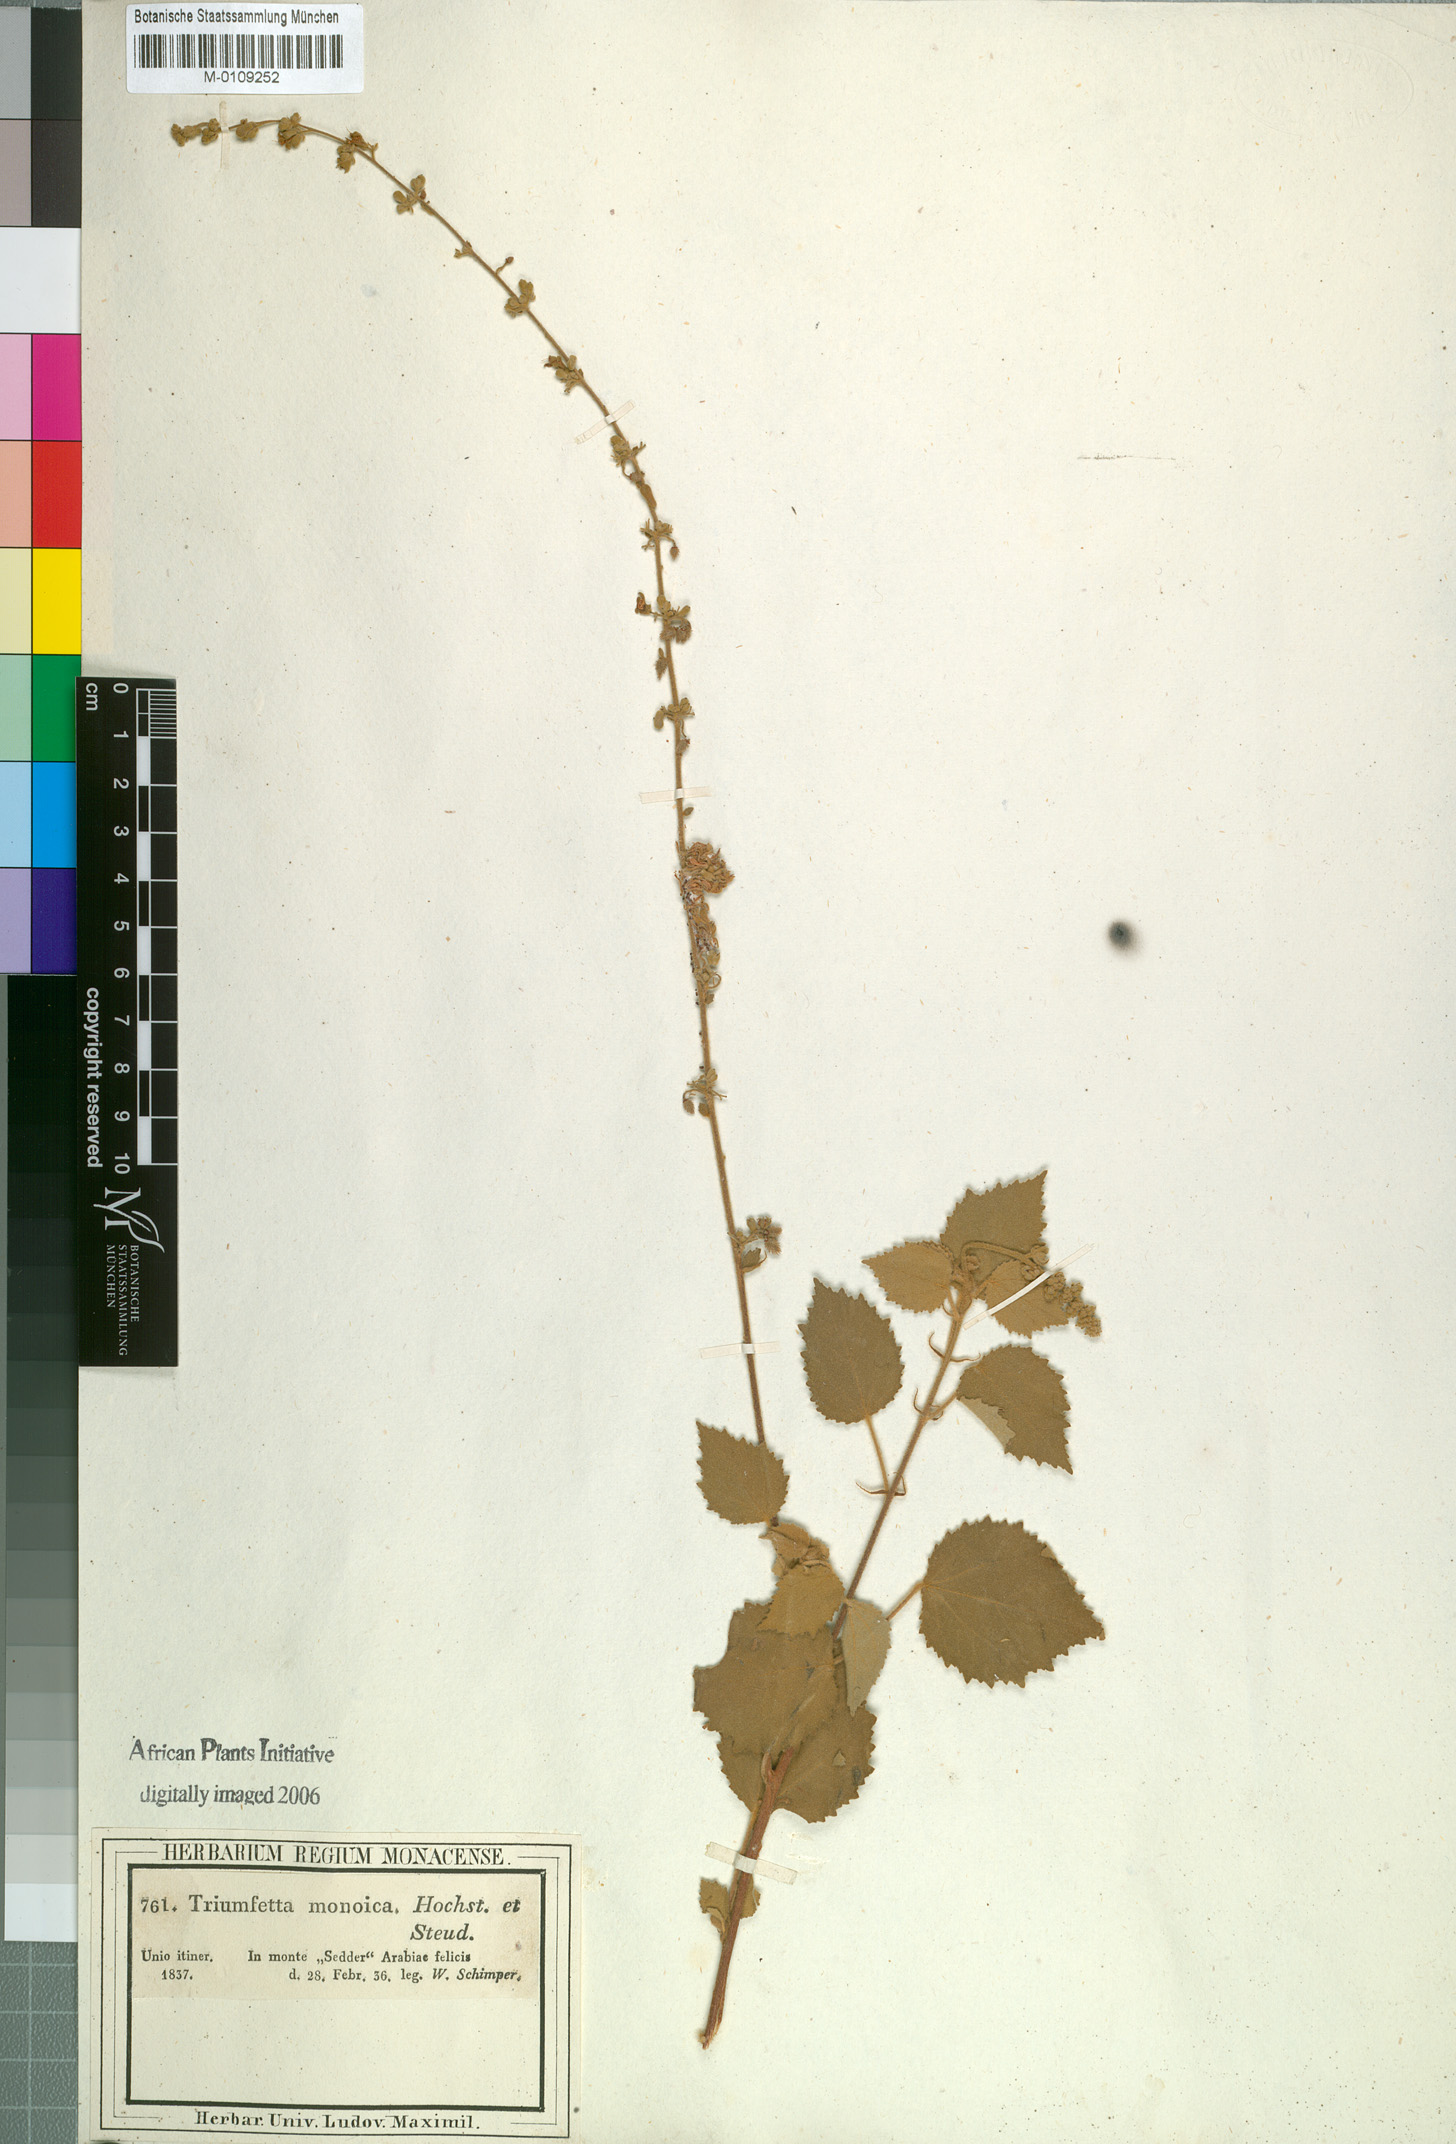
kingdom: Plantae
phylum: Tracheophyta
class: Magnoliopsida
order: Malvales
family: Malvaceae
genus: Triumfetta
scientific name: Triumfetta flavescens
